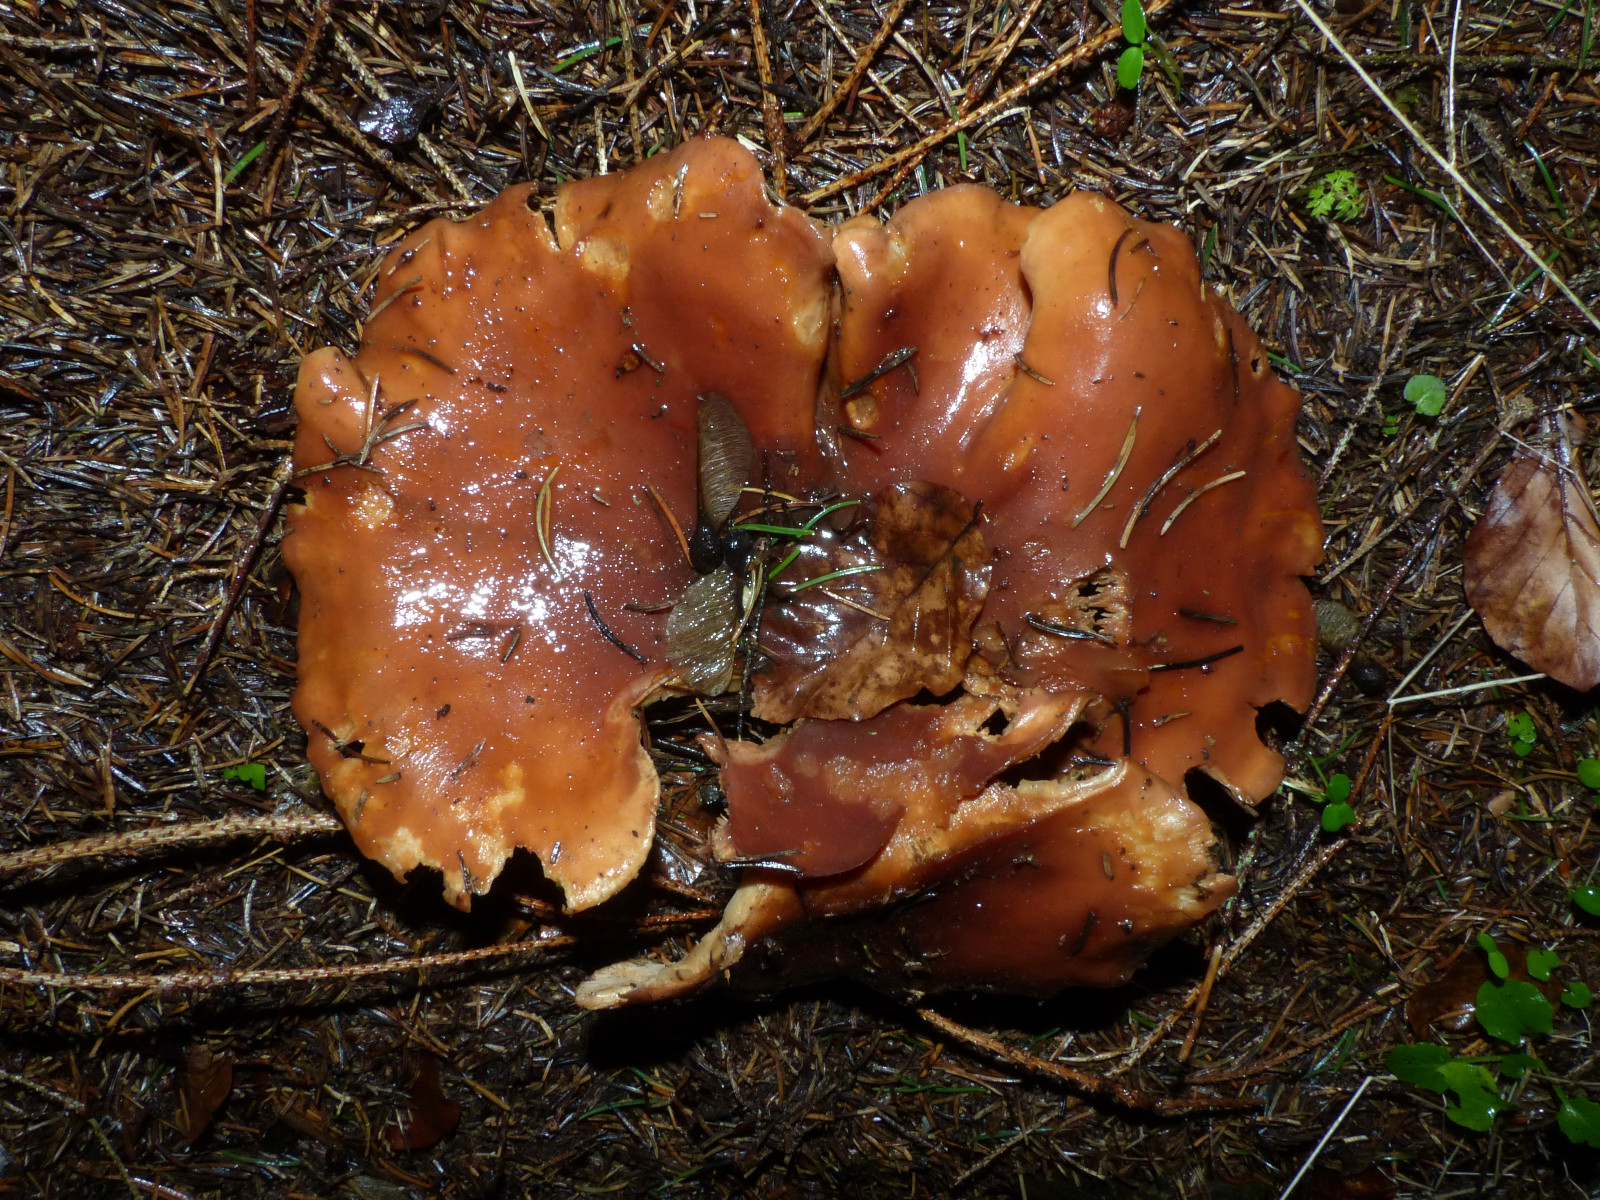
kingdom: Fungi
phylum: Basidiomycota
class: Agaricomycetes
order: Agaricales
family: Tricholomataceae
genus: Paralepista
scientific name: Paralepista flaccida
